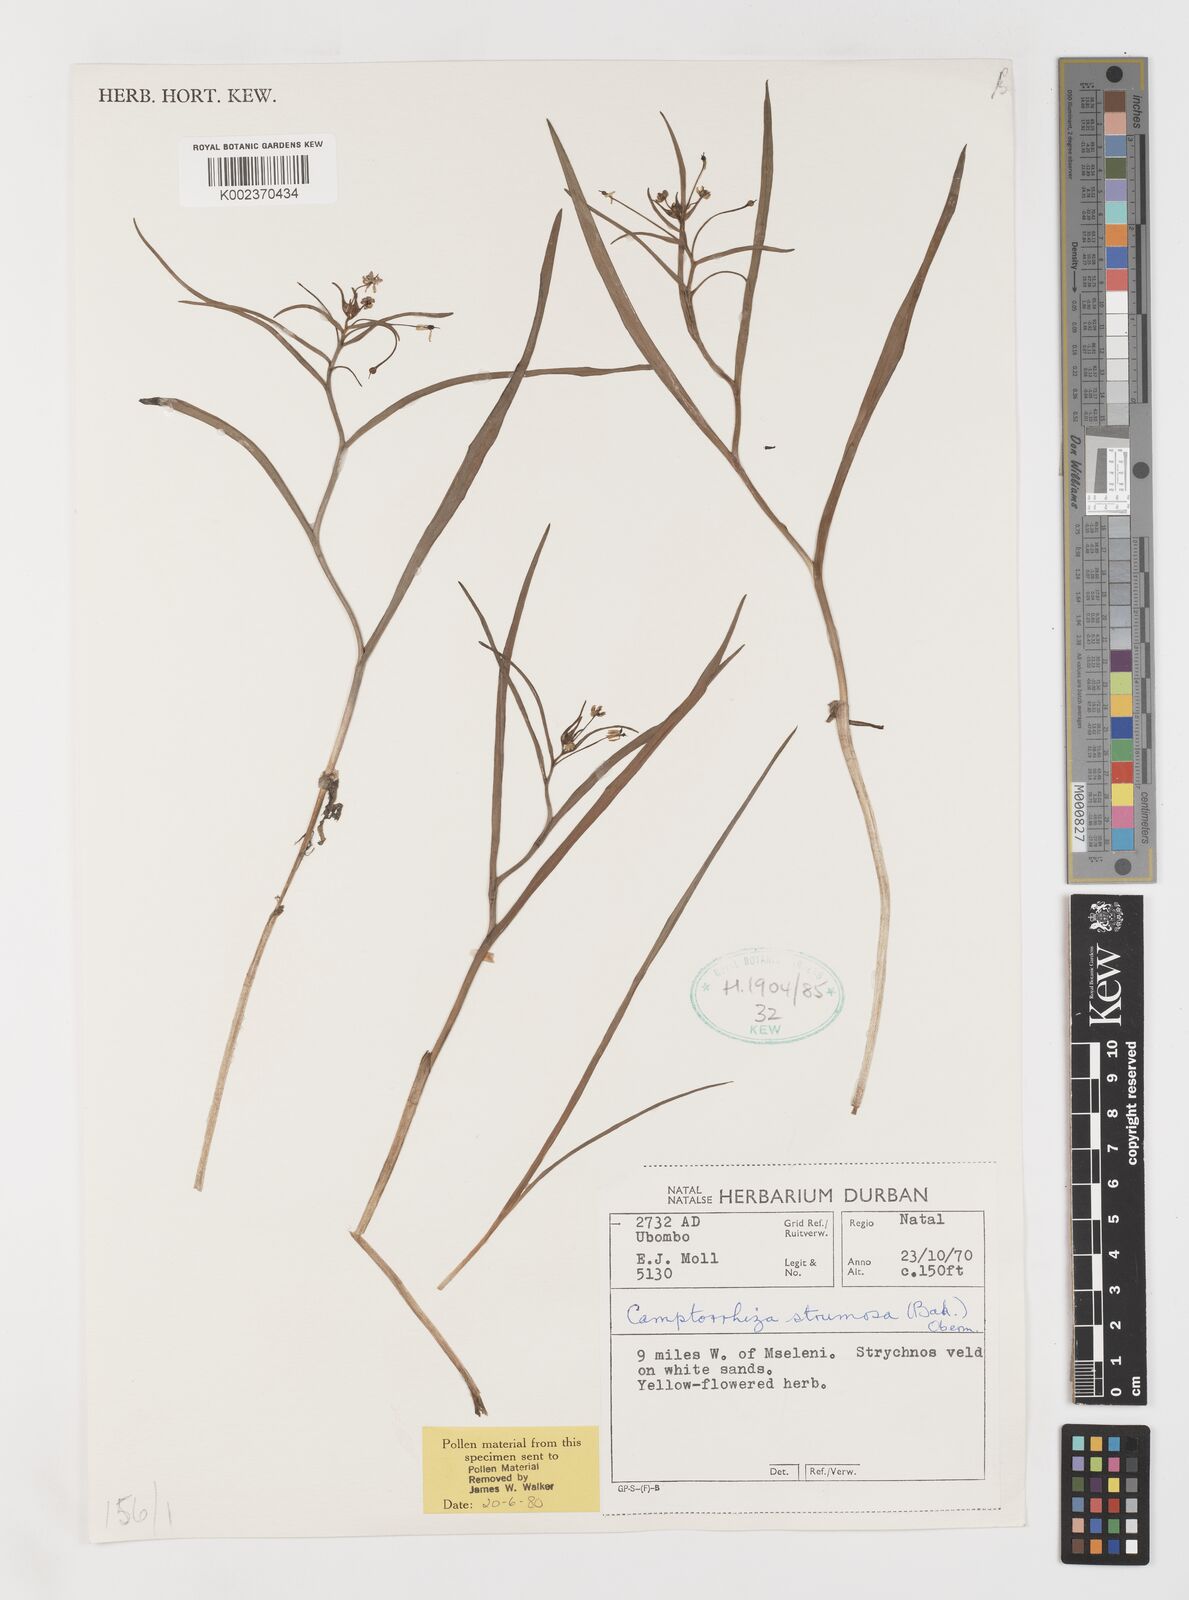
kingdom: Plantae
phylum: Tracheophyta
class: Liliopsida
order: Liliales
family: Colchicaceae
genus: Camptorrhiza
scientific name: Camptorrhiza strumosa
